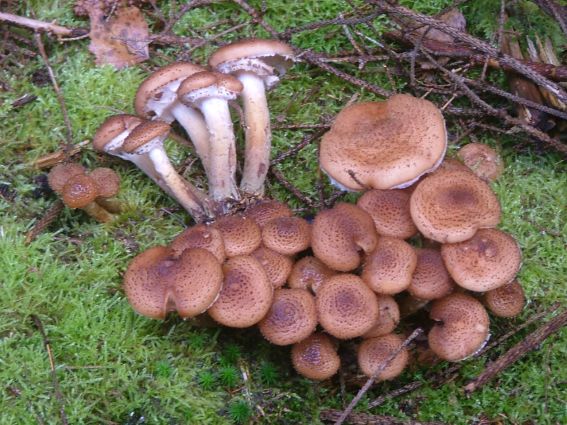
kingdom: Fungi
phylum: Basidiomycota
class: Agaricomycetes
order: Agaricales
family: Physalacriaceae
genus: Armillaria
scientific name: Armillaria ostoyae
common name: mørk honningsvamp
